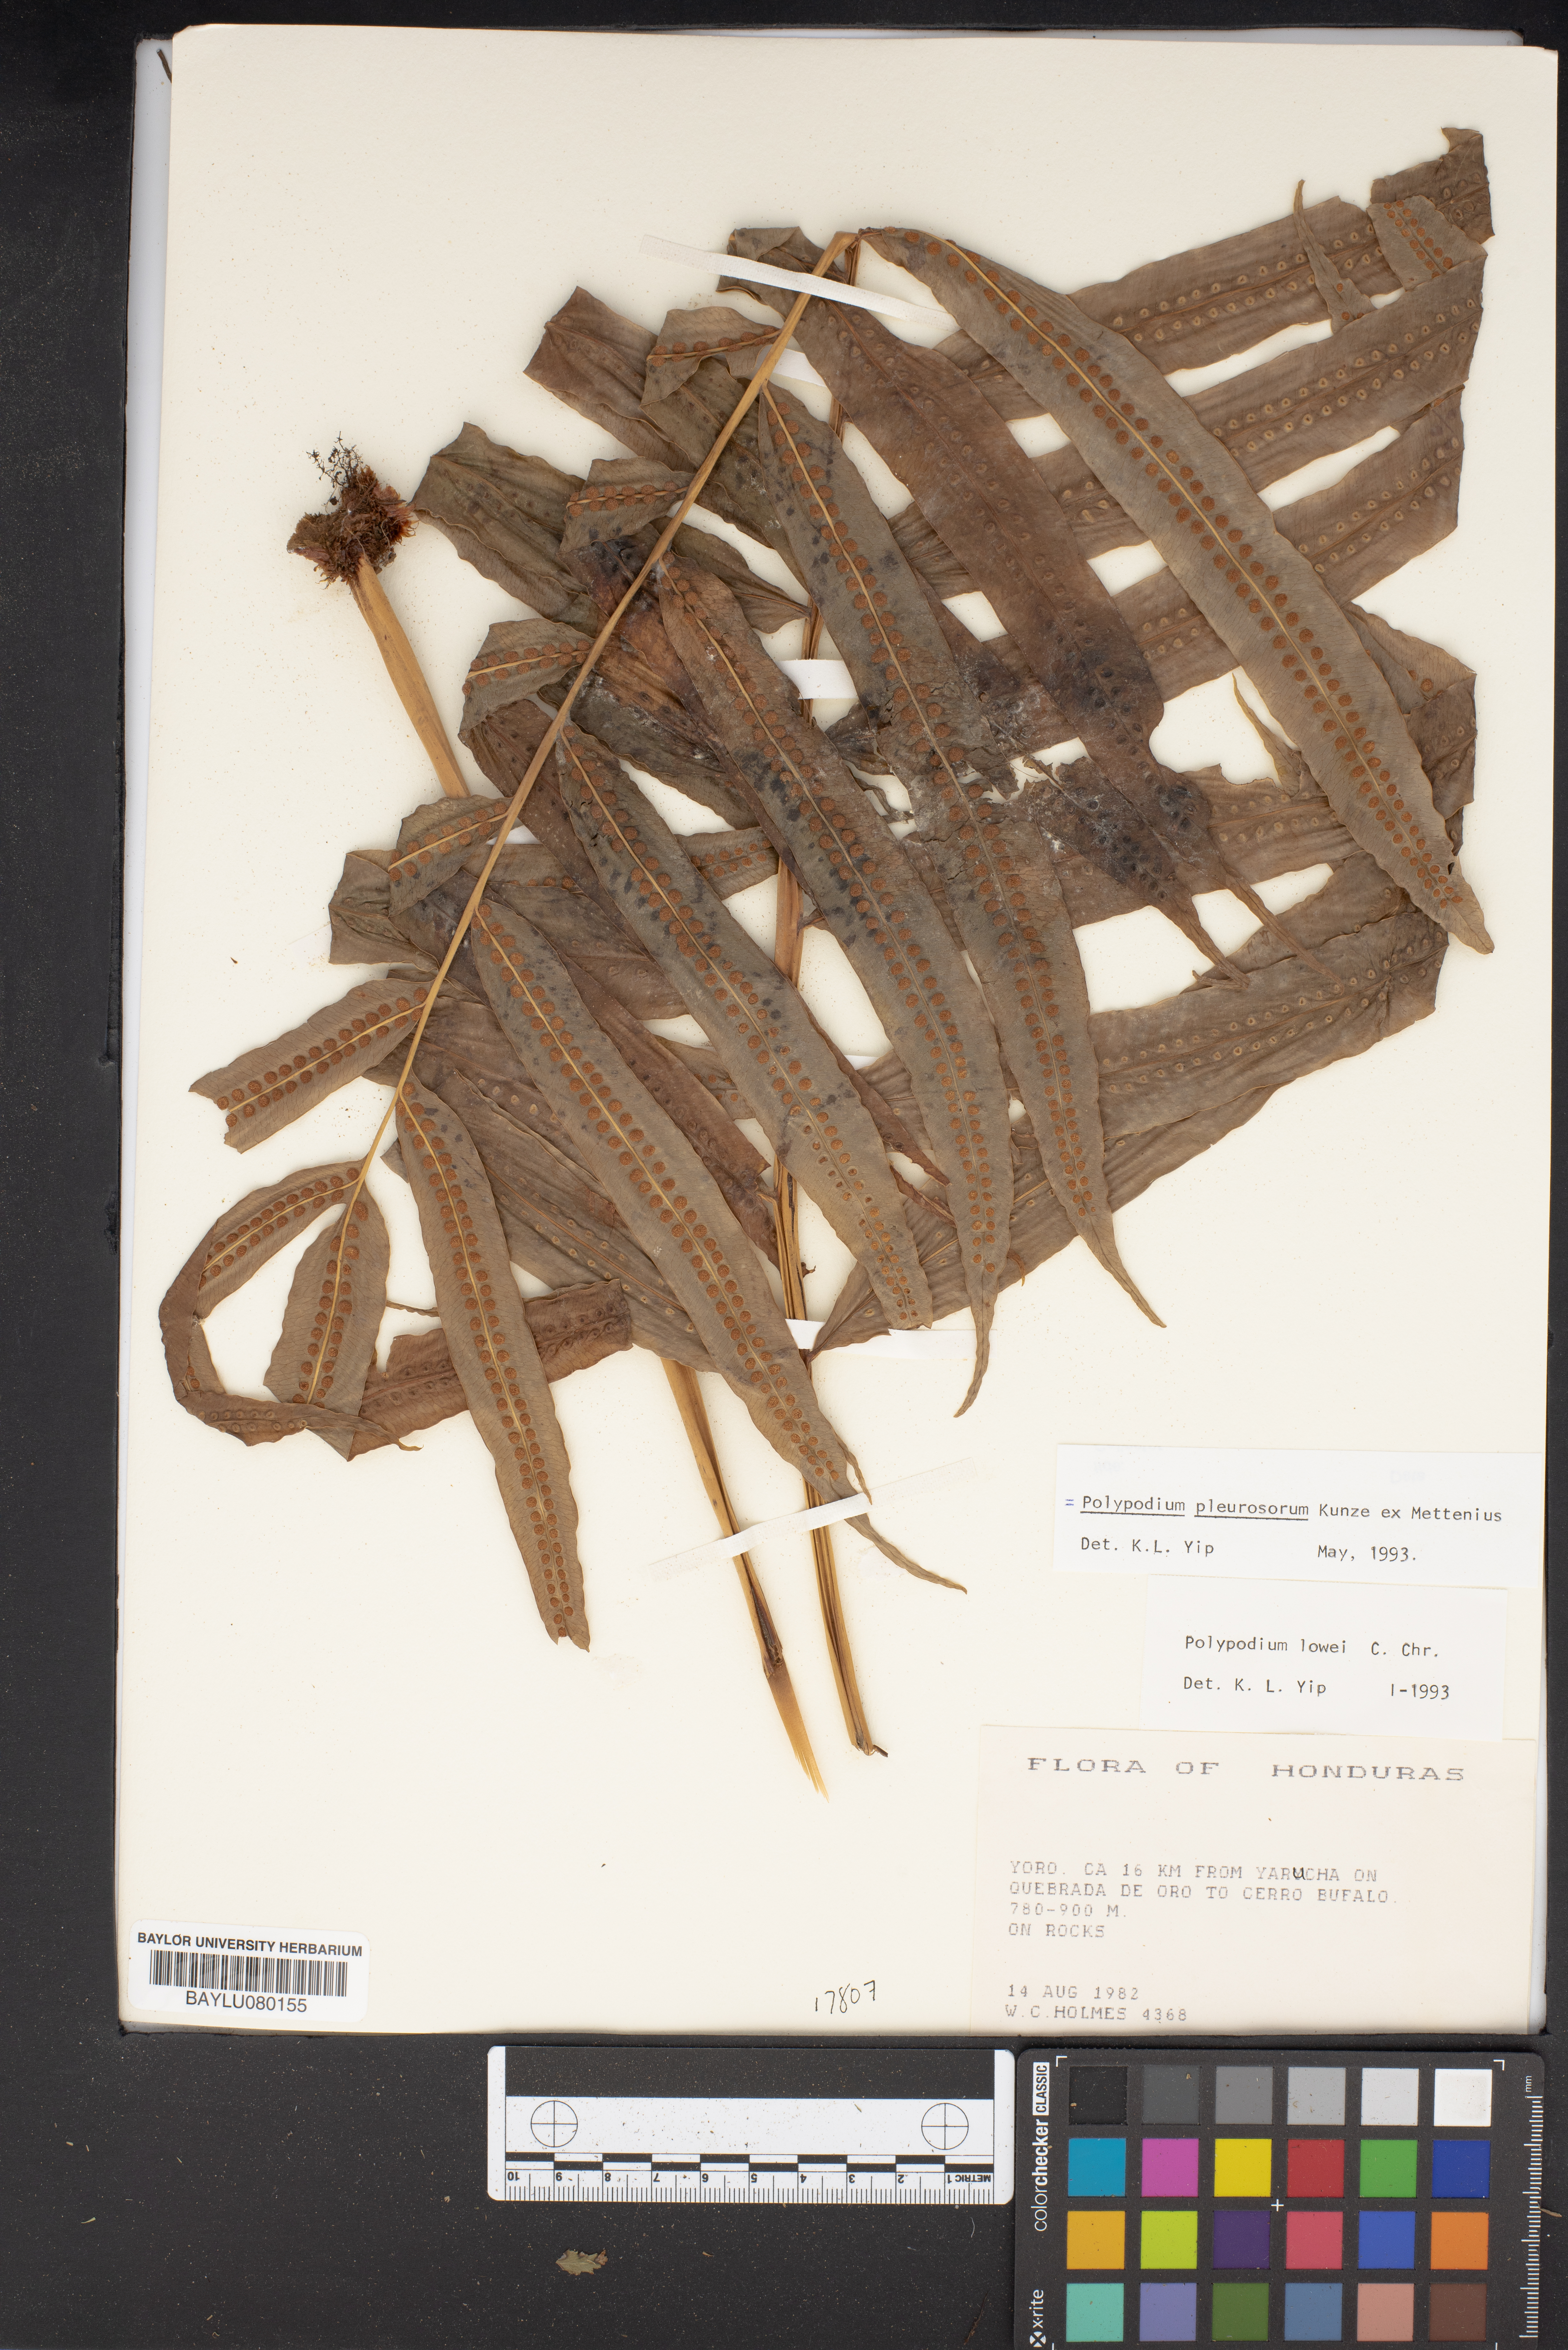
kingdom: Plantae
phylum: Tracheophyta
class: Polypodiopsida
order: Polypodiales
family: Polypodiaceae
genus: Polypodium
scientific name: Polypodium pleurosorum
